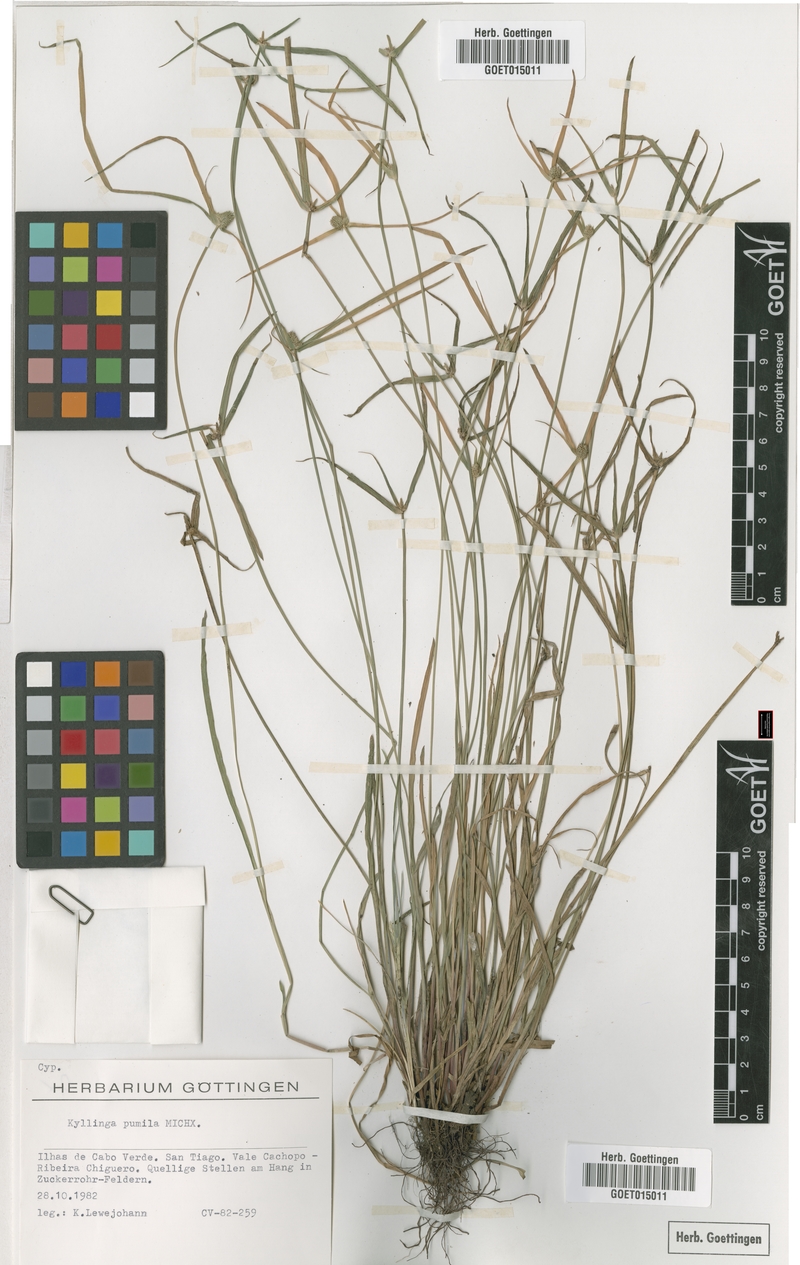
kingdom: Plantae
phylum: Tracheophyta
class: Liliopsida
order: Poales
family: Cyperaceae
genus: Cyperus
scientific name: Cyperus hortensis
